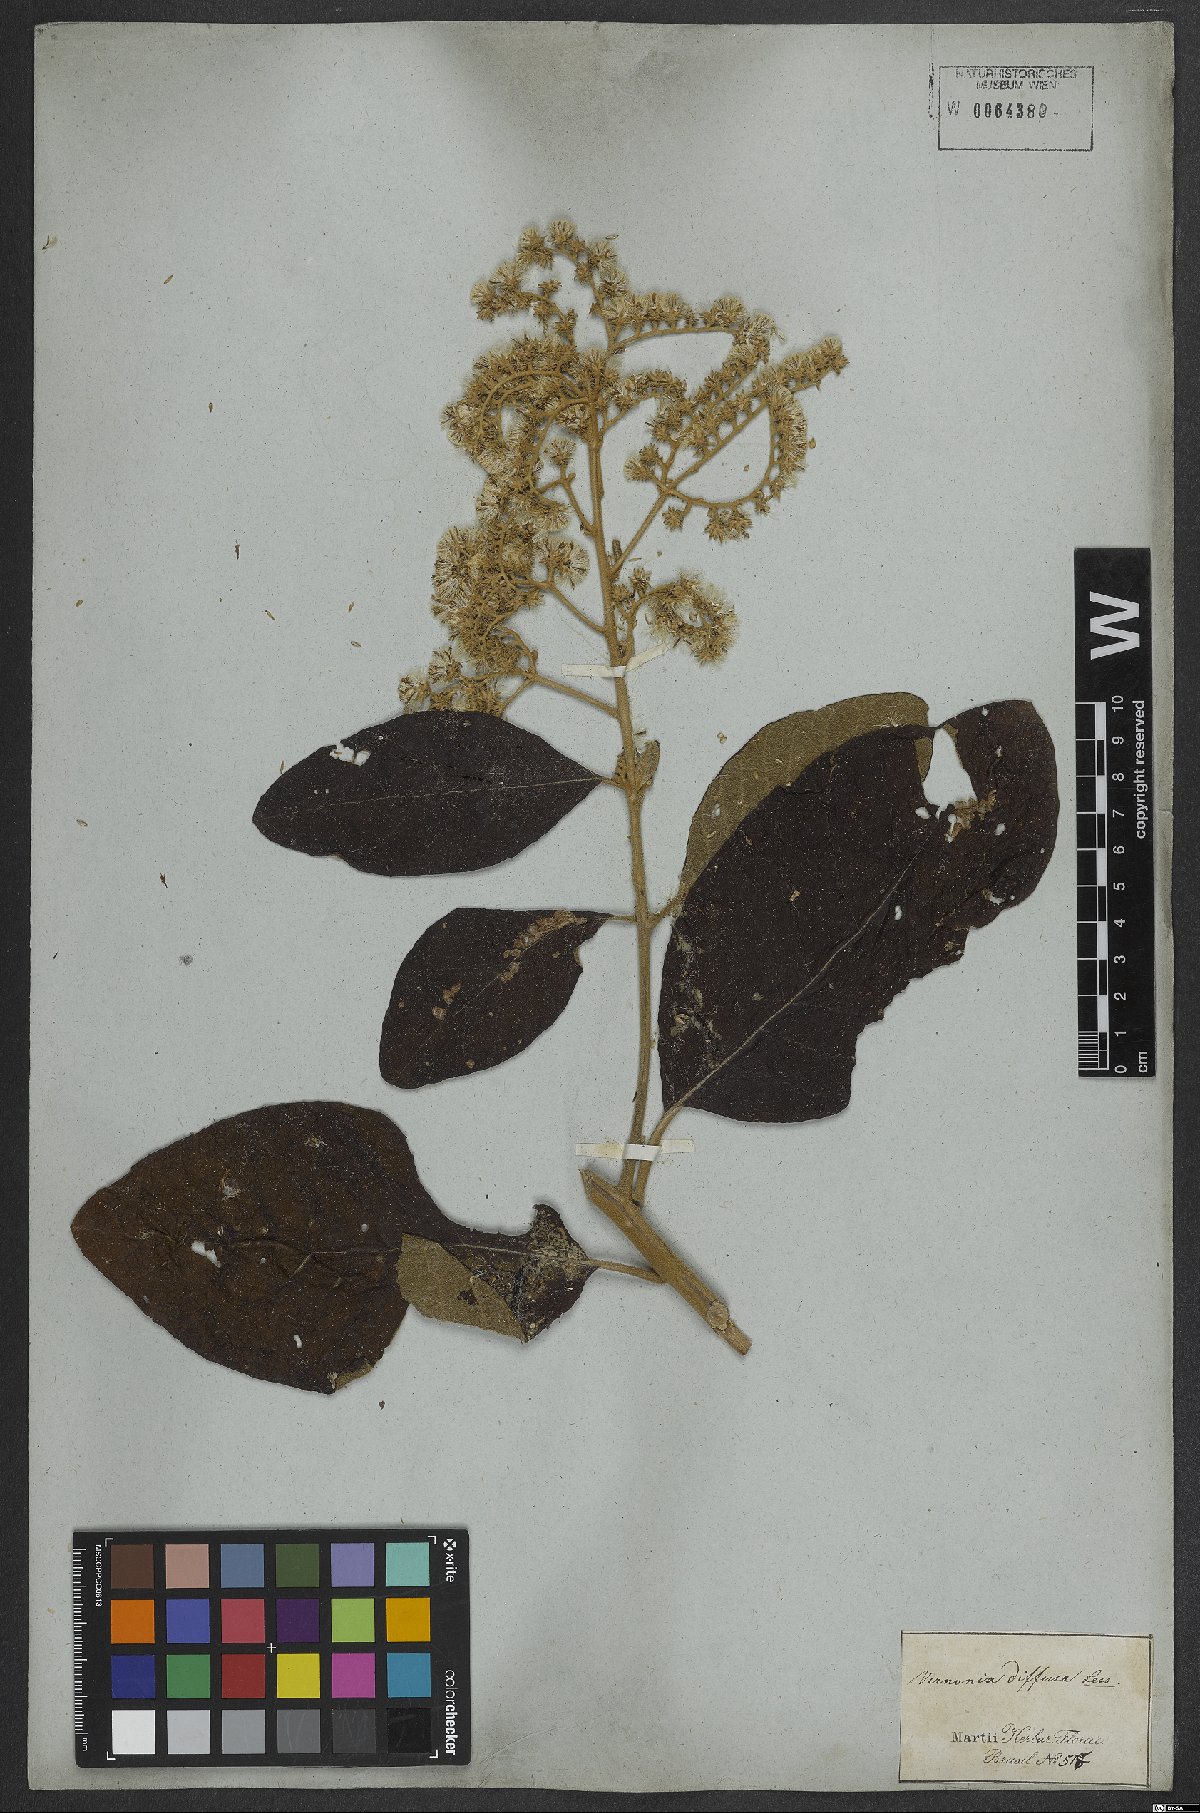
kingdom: Plantae
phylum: Tracheophyta
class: Magnoliopsida
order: Asterales
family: Asteraceae
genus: Vernonanthura
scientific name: Vernonanthura divaricata
